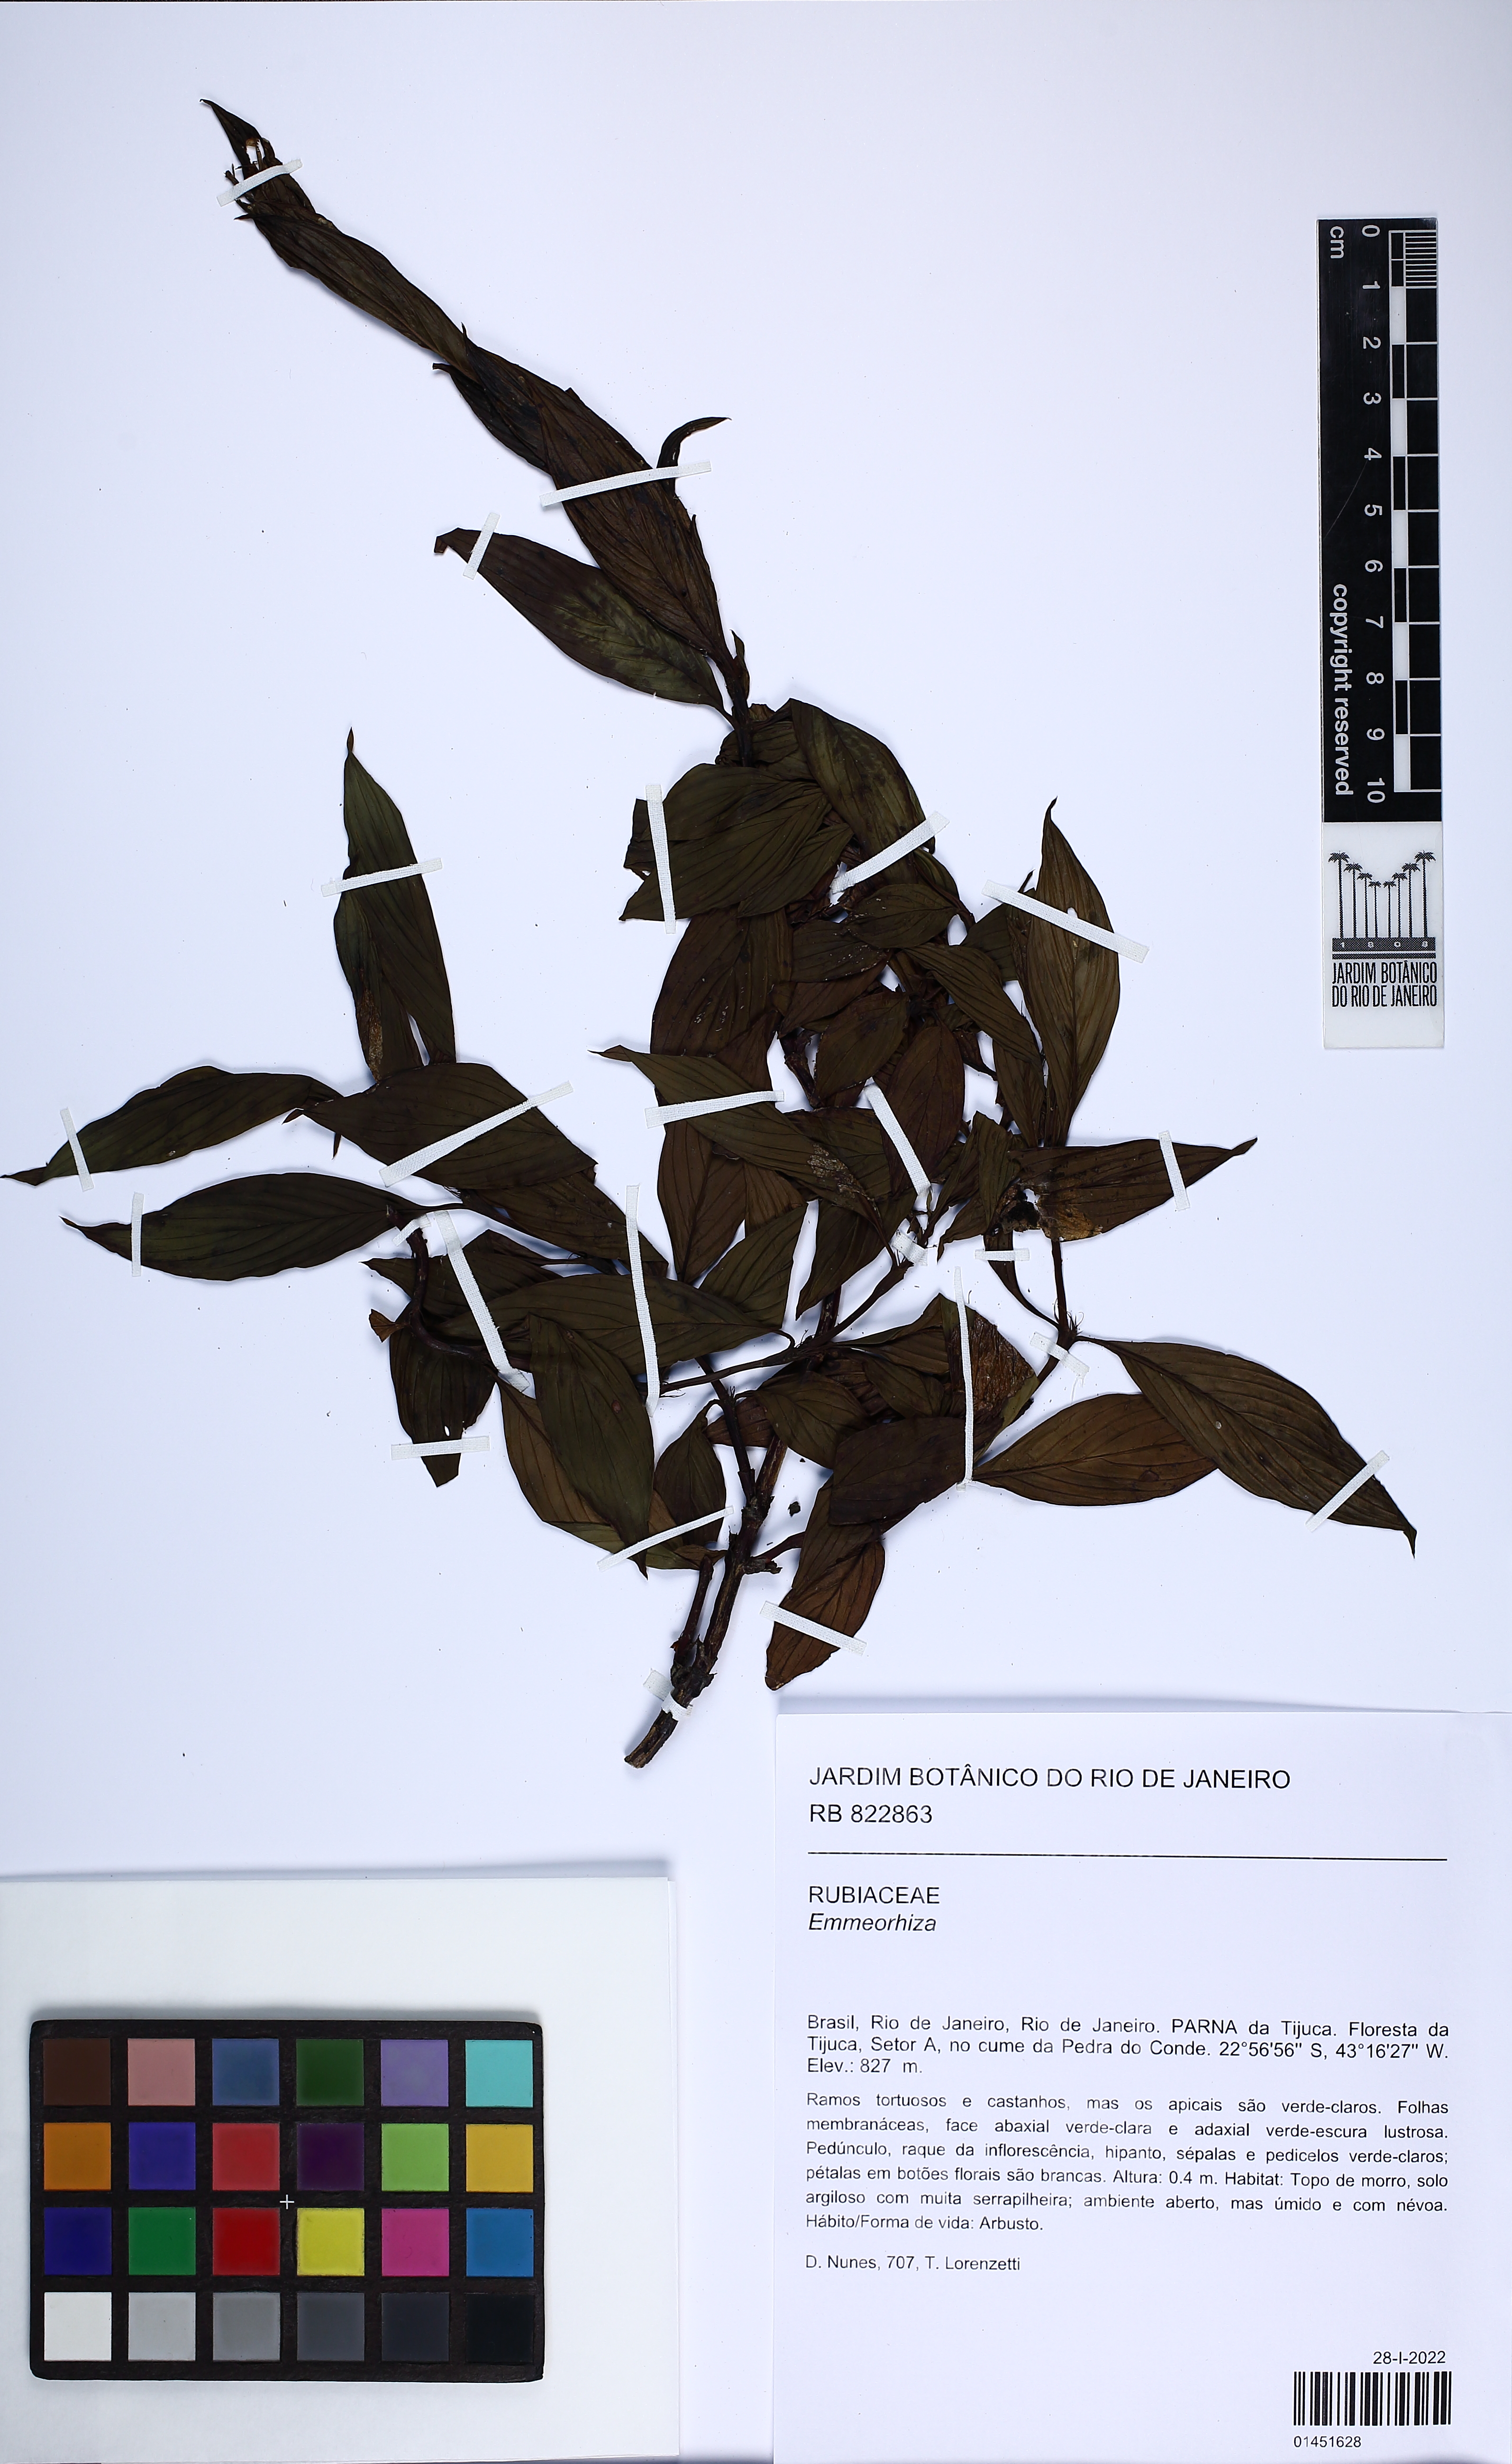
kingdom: Plantae
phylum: Tracheophyta
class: Magnoliopsida
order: Gentianales
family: Rubiaceae
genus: Emmeorhiza
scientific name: Emmeorhiza umbellata
